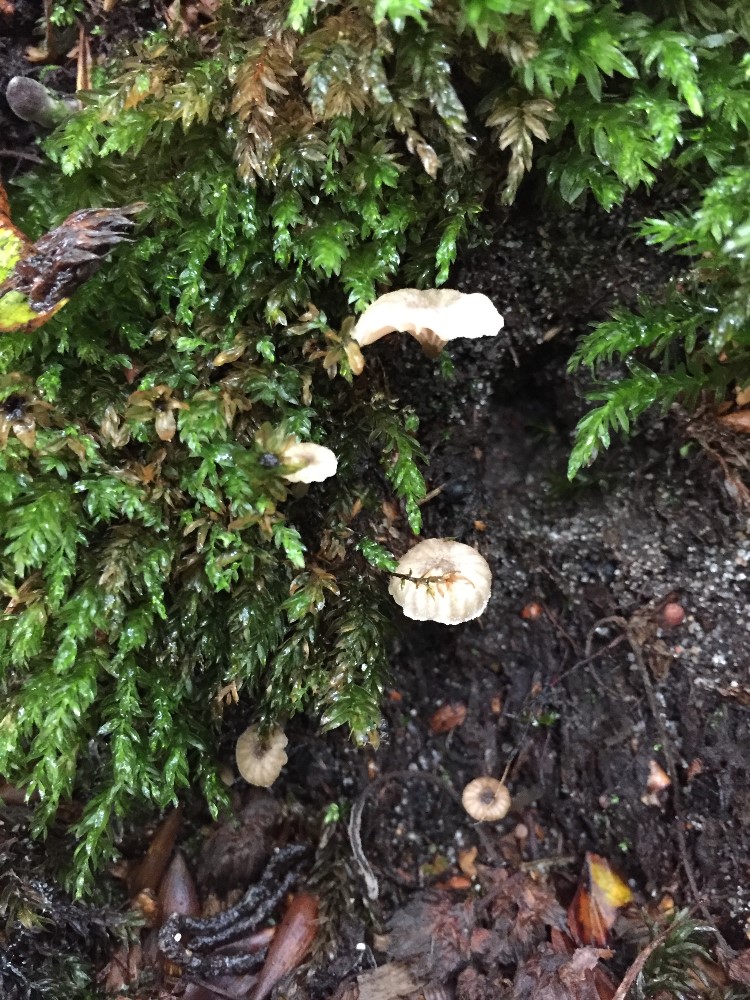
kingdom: Fungi
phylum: Basidiomycota
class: Agaricomycetes
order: Agaricales
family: Entolomataceae
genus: Entoloma
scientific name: Entoloma rhodocylix
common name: fjernbladet rødblad
